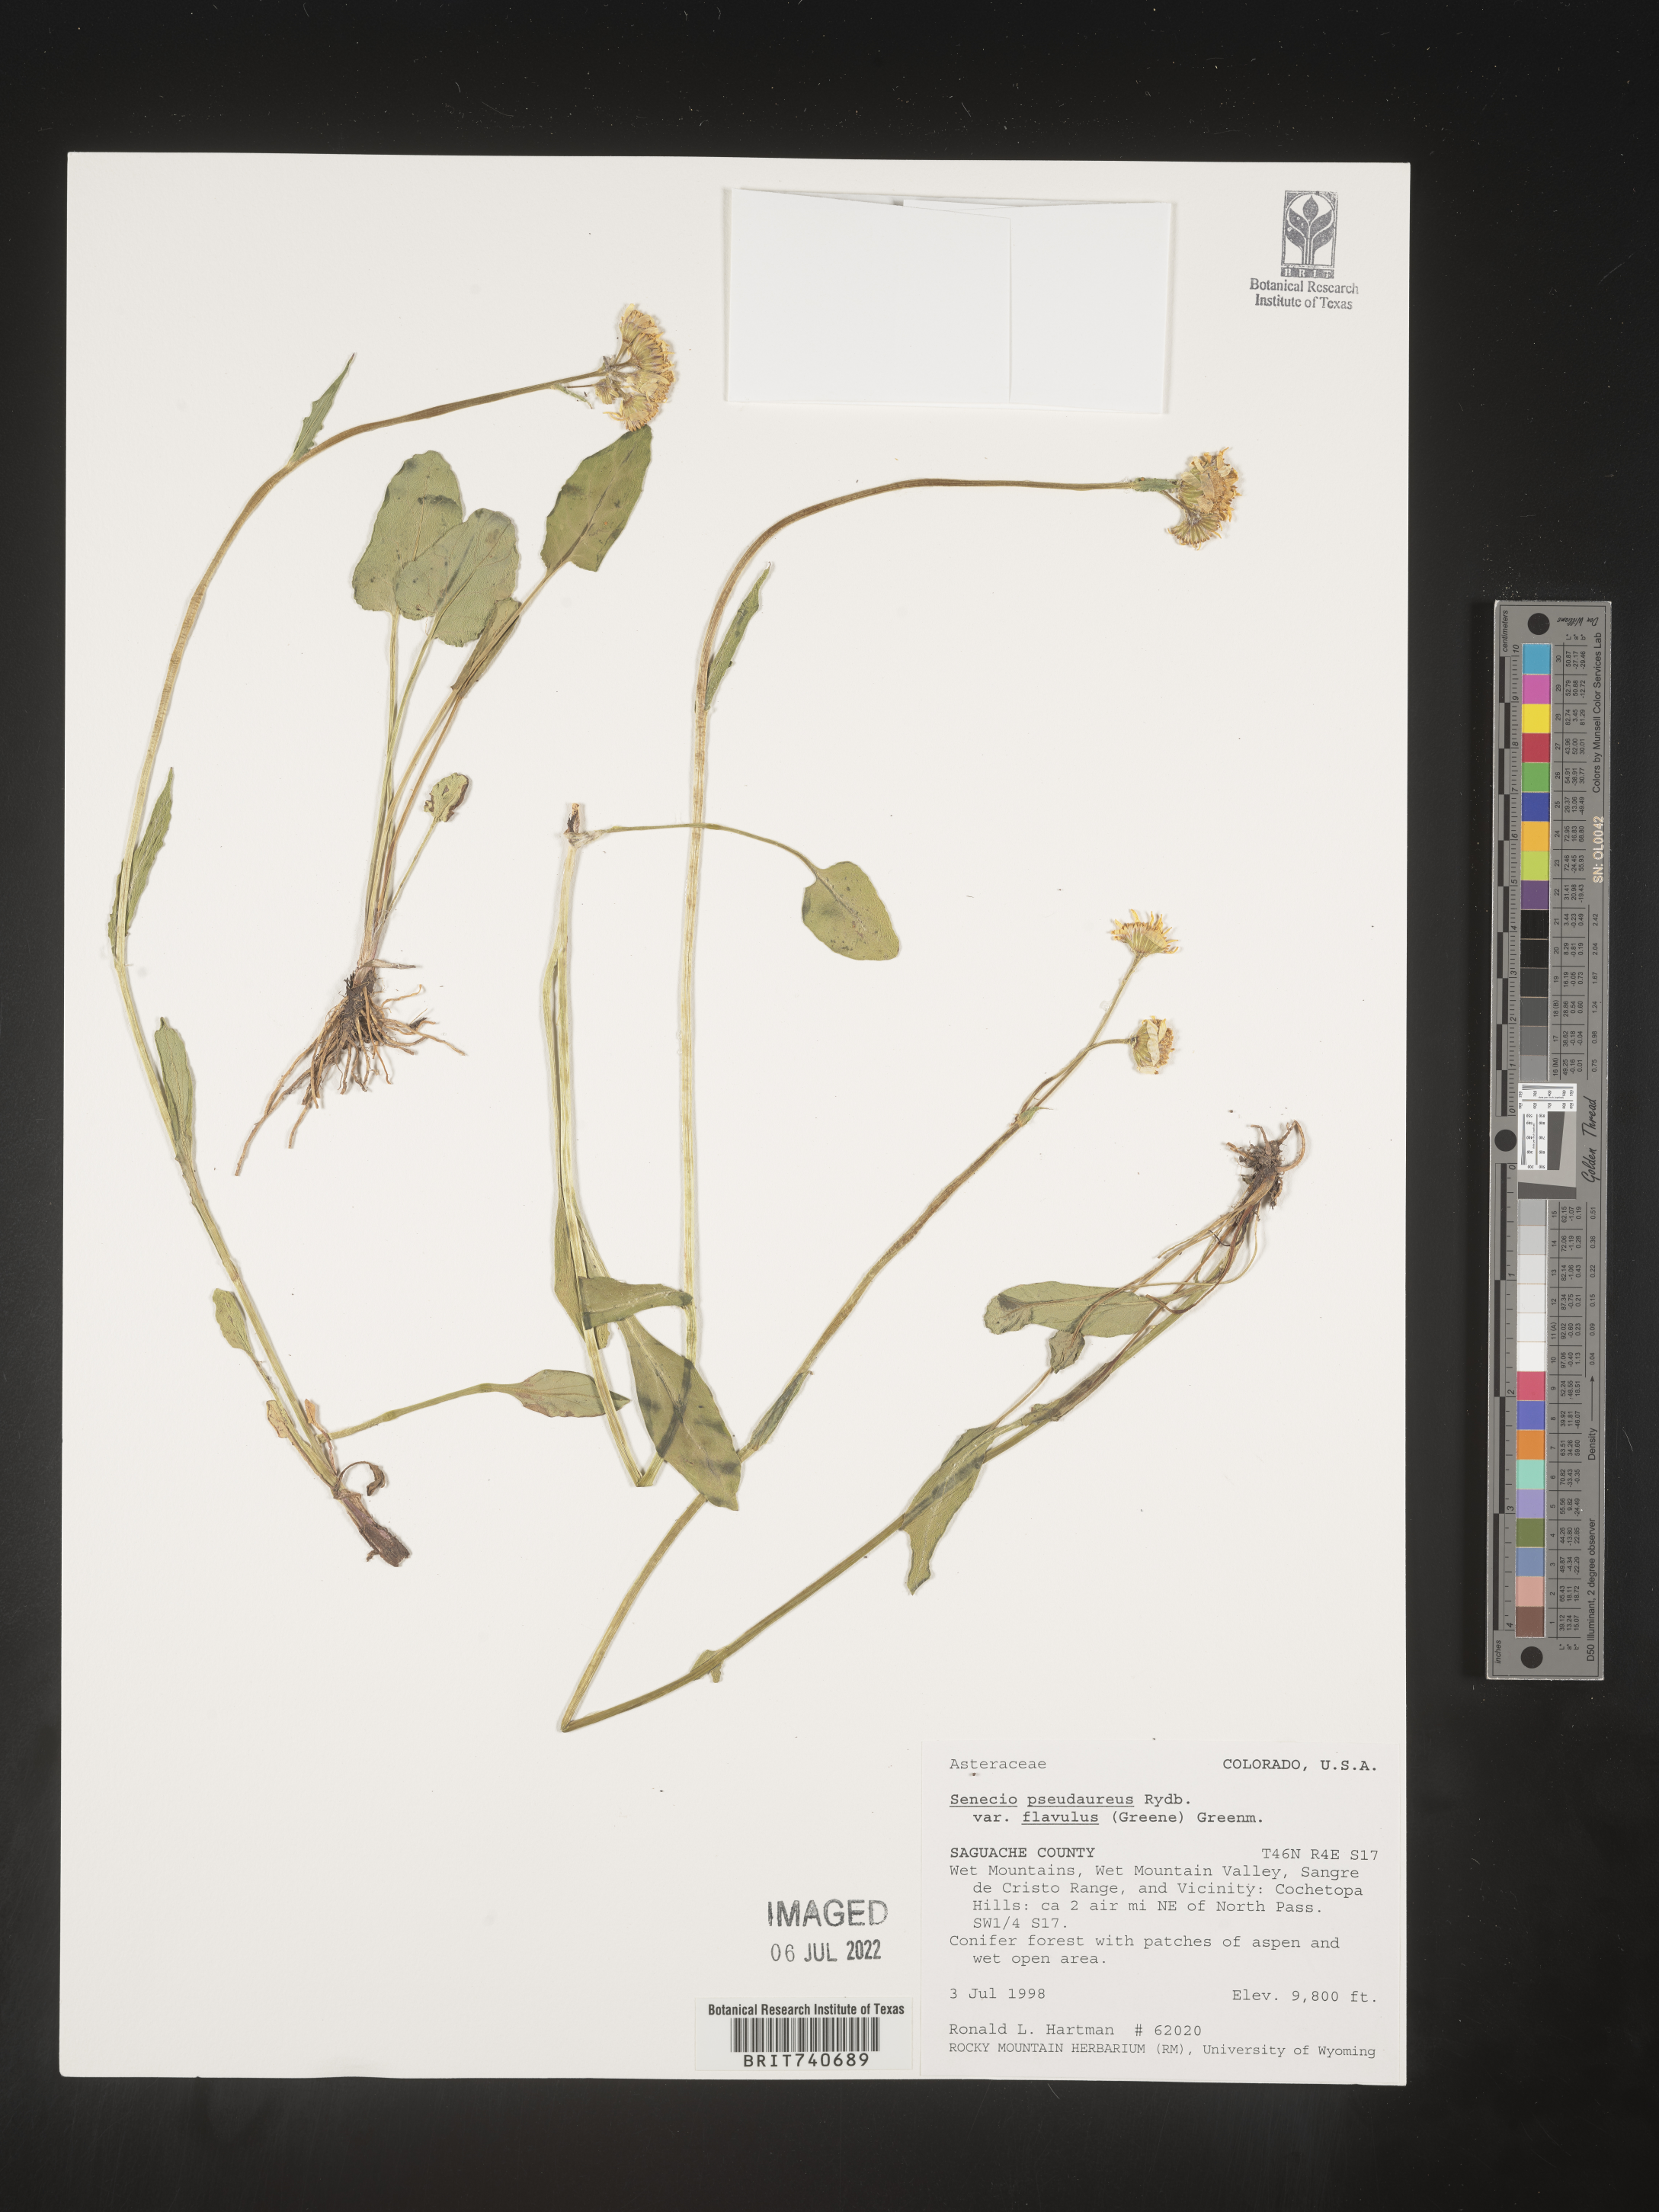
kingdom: Plantae
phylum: Tracheophyta
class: Magnoliopsida
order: Asterales
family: Asteraceae
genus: Jacobaea
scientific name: Jacobaea pseudoarnica
